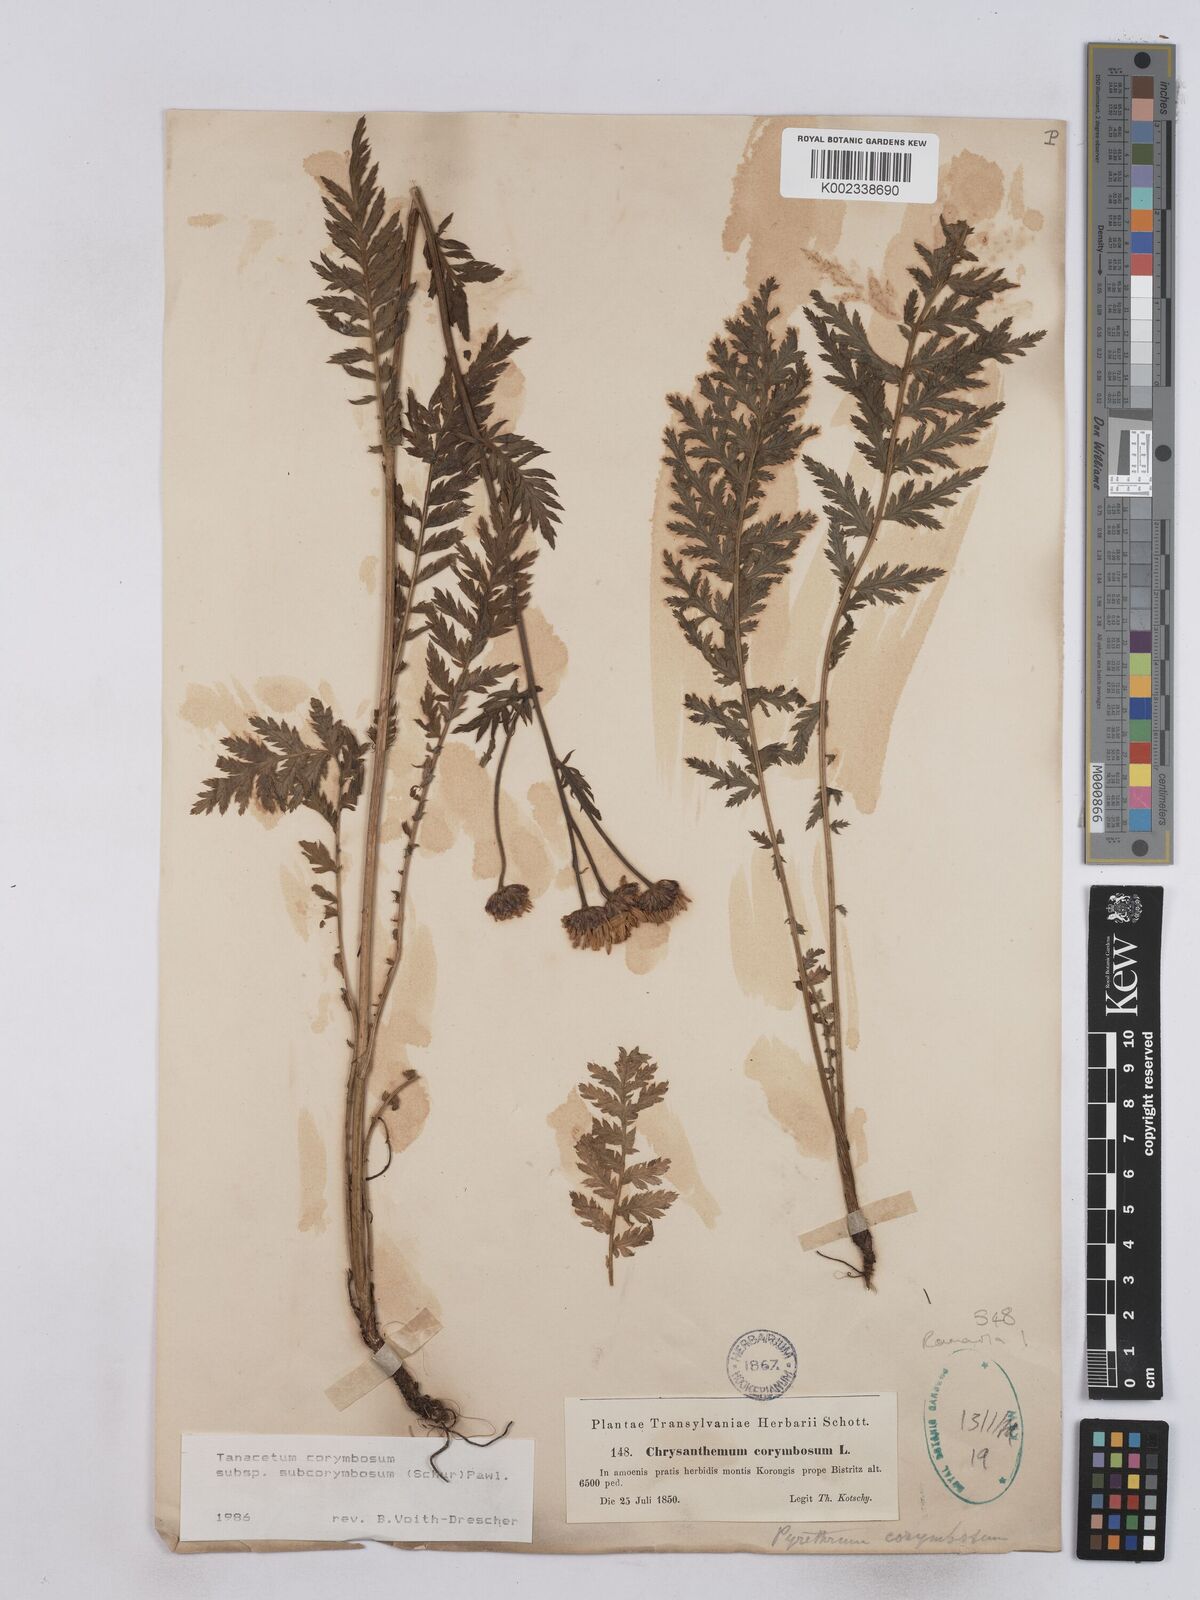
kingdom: Plantae
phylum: Tracheophyta
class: Magnoliopsida
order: Asterales
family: Asteraceae
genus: Tanacetum
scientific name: Tanacetum corymbosum
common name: Scentless feverfew
